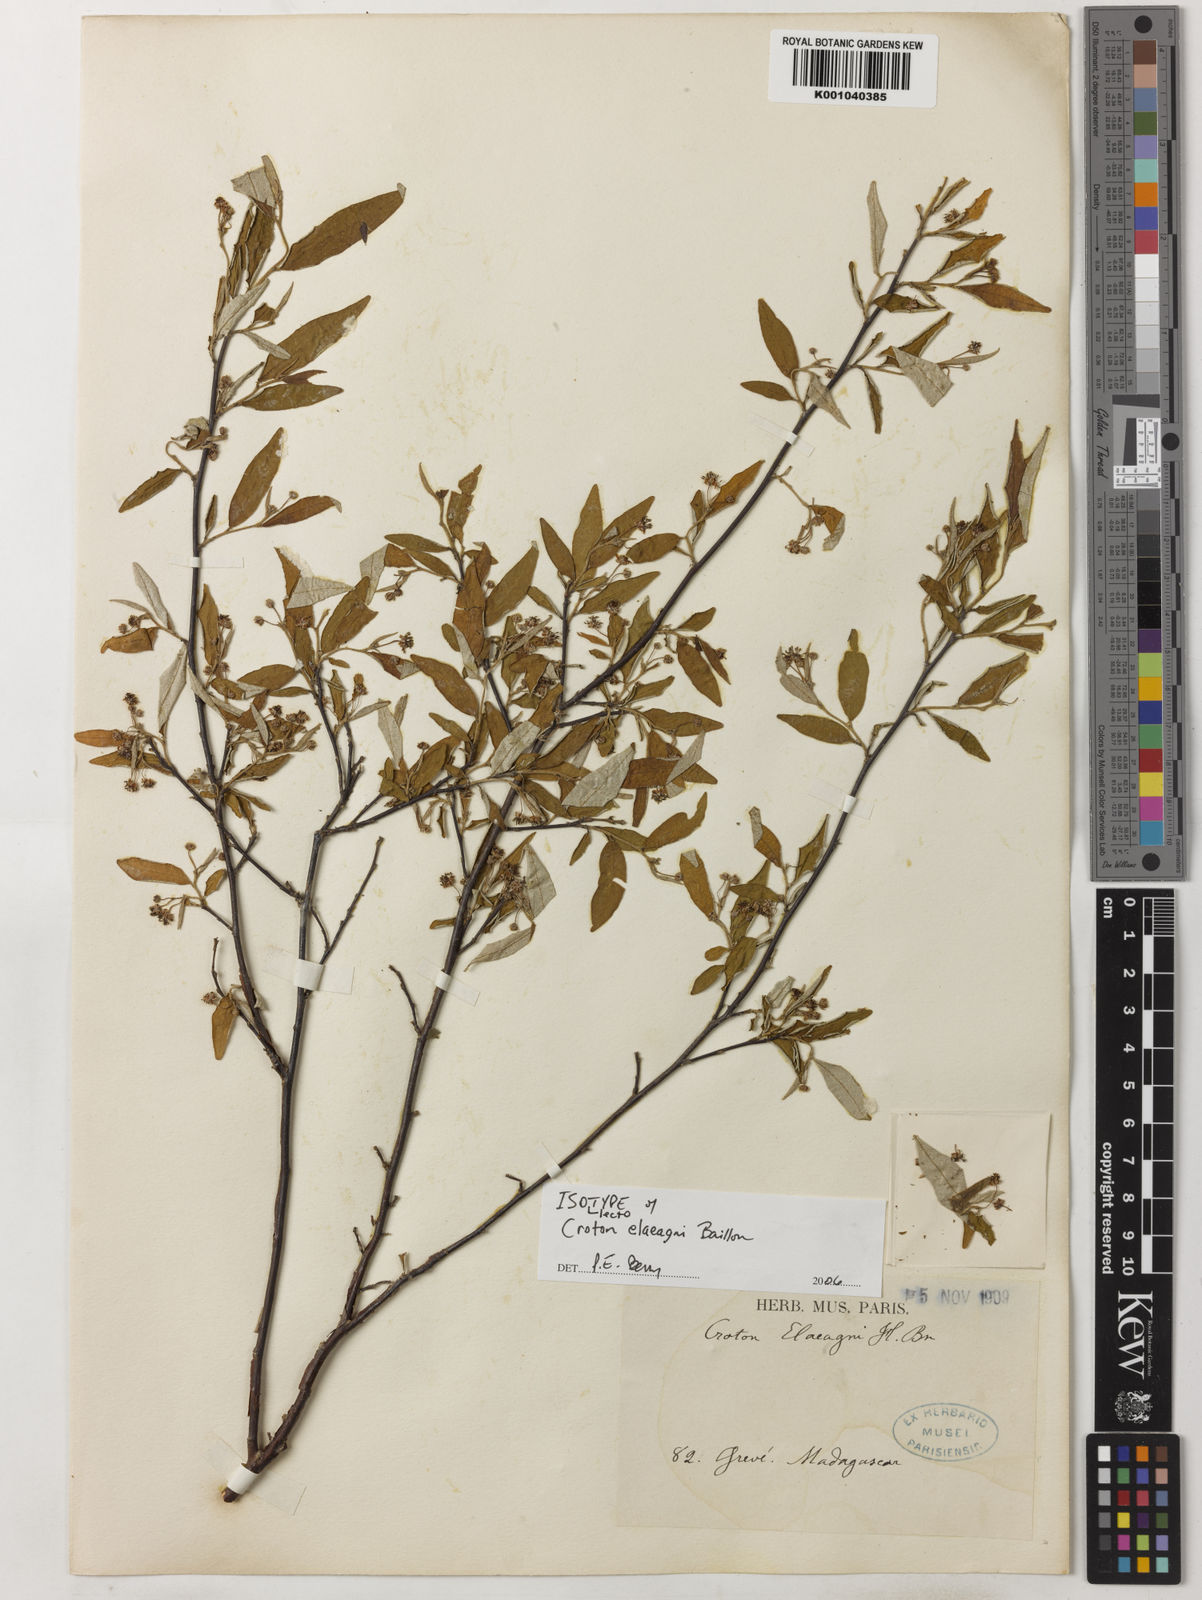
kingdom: Plantae
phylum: Tracheophyta
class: Magnoliopsida
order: Malpighiales
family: Euphorbiaceae
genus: Croton
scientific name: Croton elaeagni
